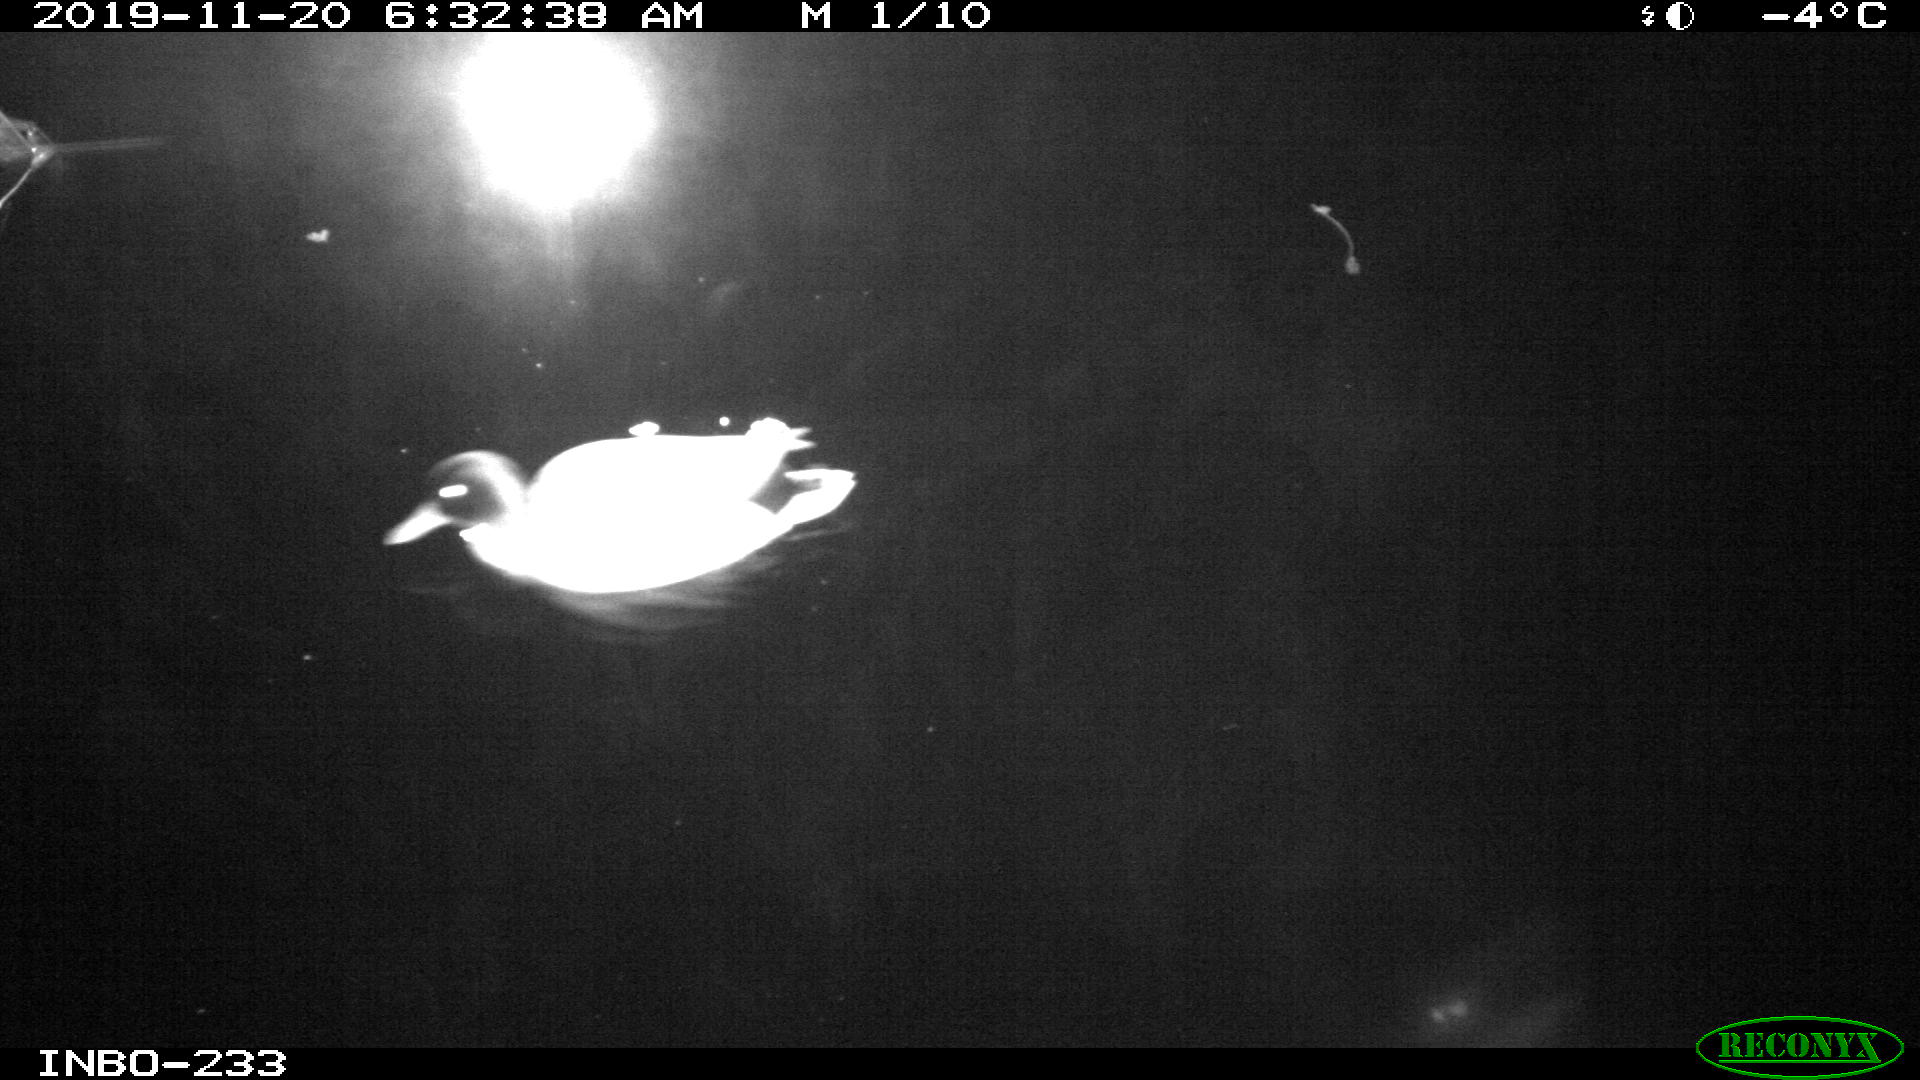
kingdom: Animalia
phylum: Chordata
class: Aves
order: Anseriformes
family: Anatidae
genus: Anas
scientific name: Anas platyrhynchos
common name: Mallard
